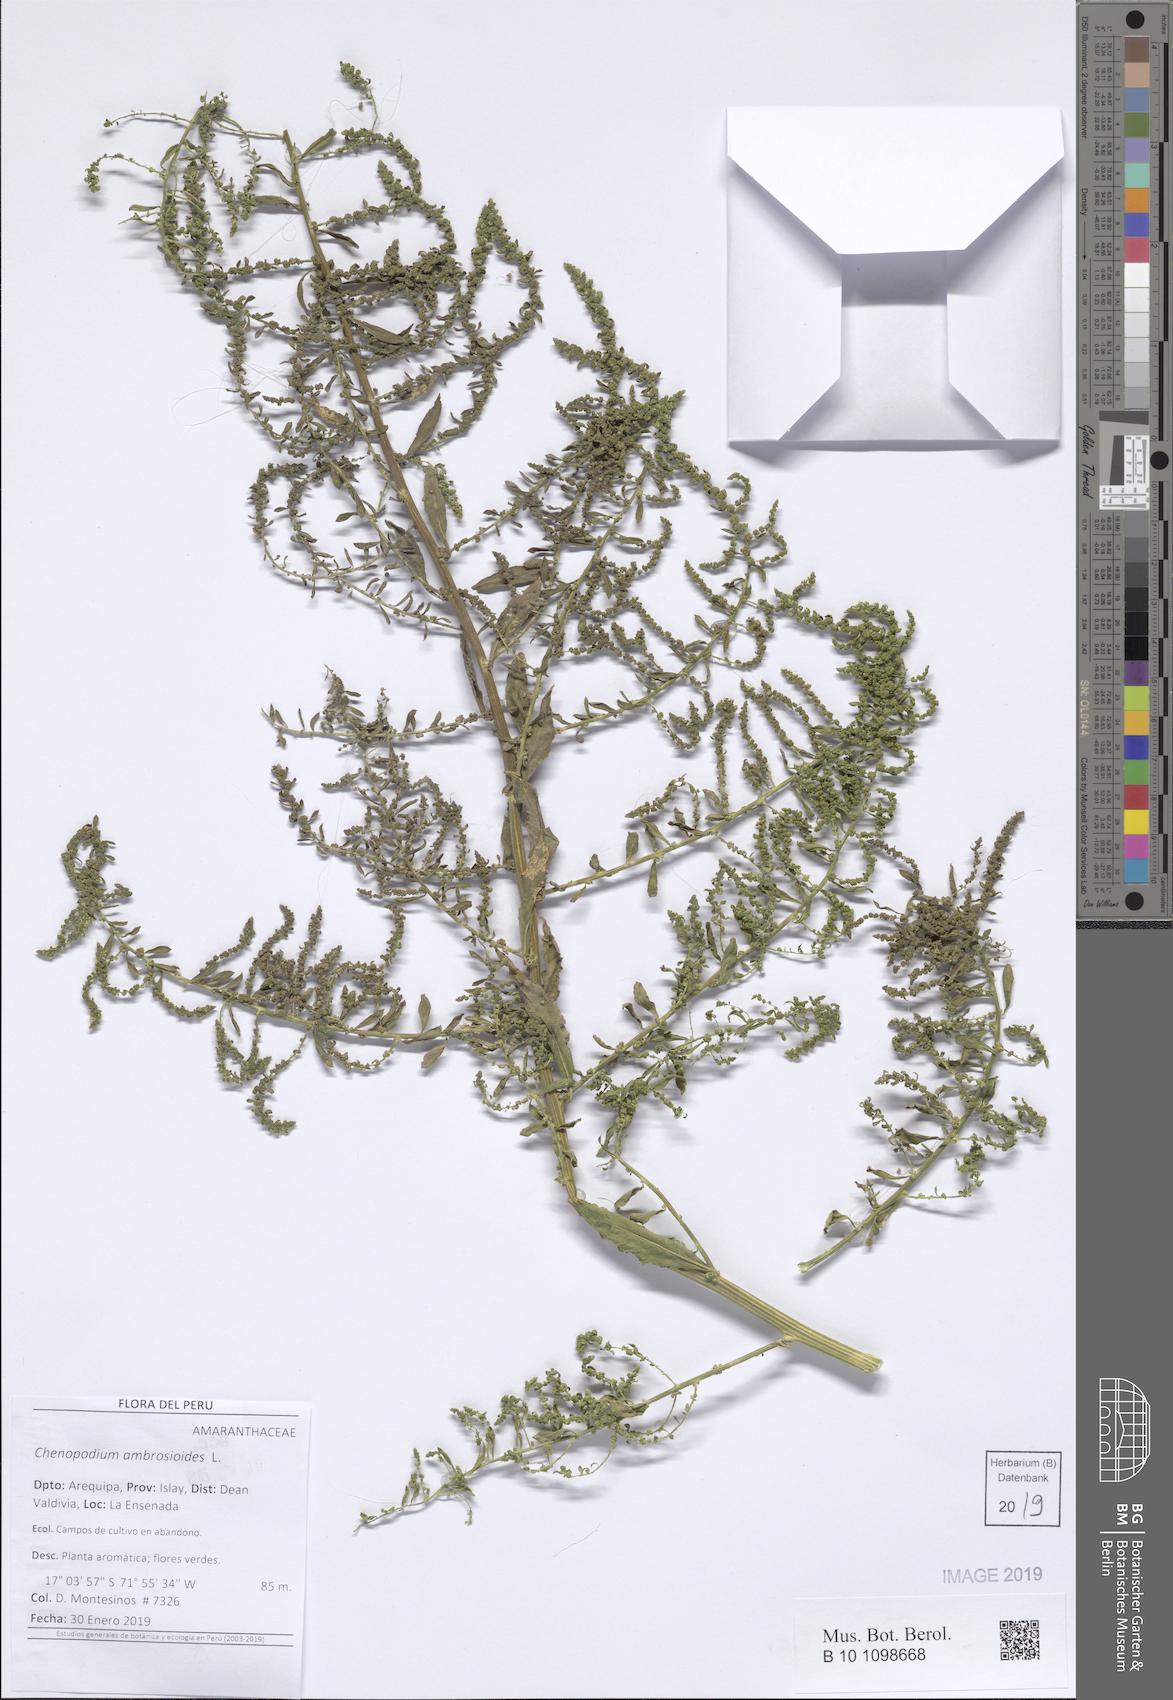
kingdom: Plantae
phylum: Tracheophyta
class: Magnoliopsida
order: Caryophyllales
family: Amaranthaceae
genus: Dysphania
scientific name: Dysphania ambrosioides
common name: Wormseed
